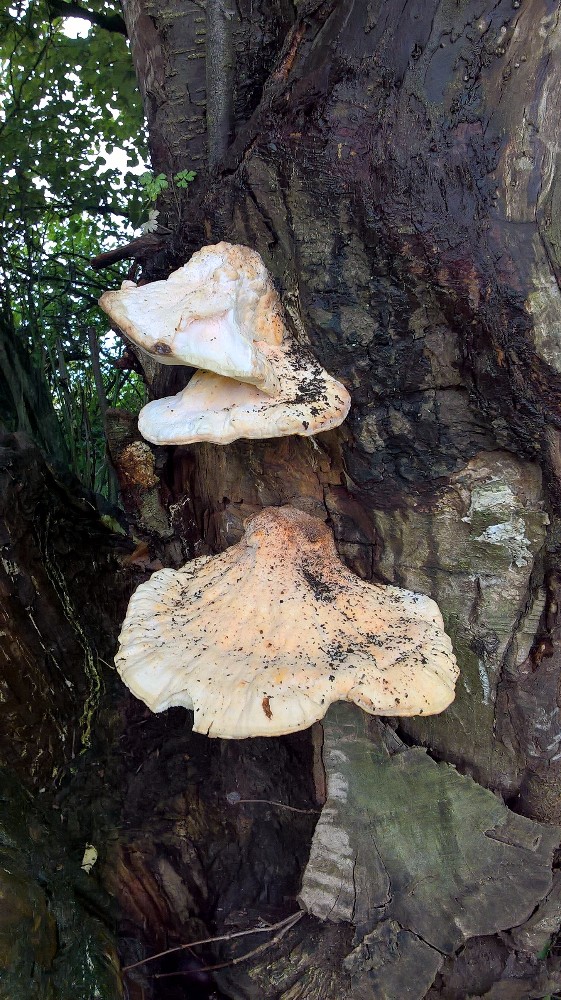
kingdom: Fungi
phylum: Basidiomycota
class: Agaricomycetes
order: Polyporales
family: Laetiporaceae
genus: Laetiporus
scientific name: Laetiporus sulphureus
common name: svovlporesvamp
